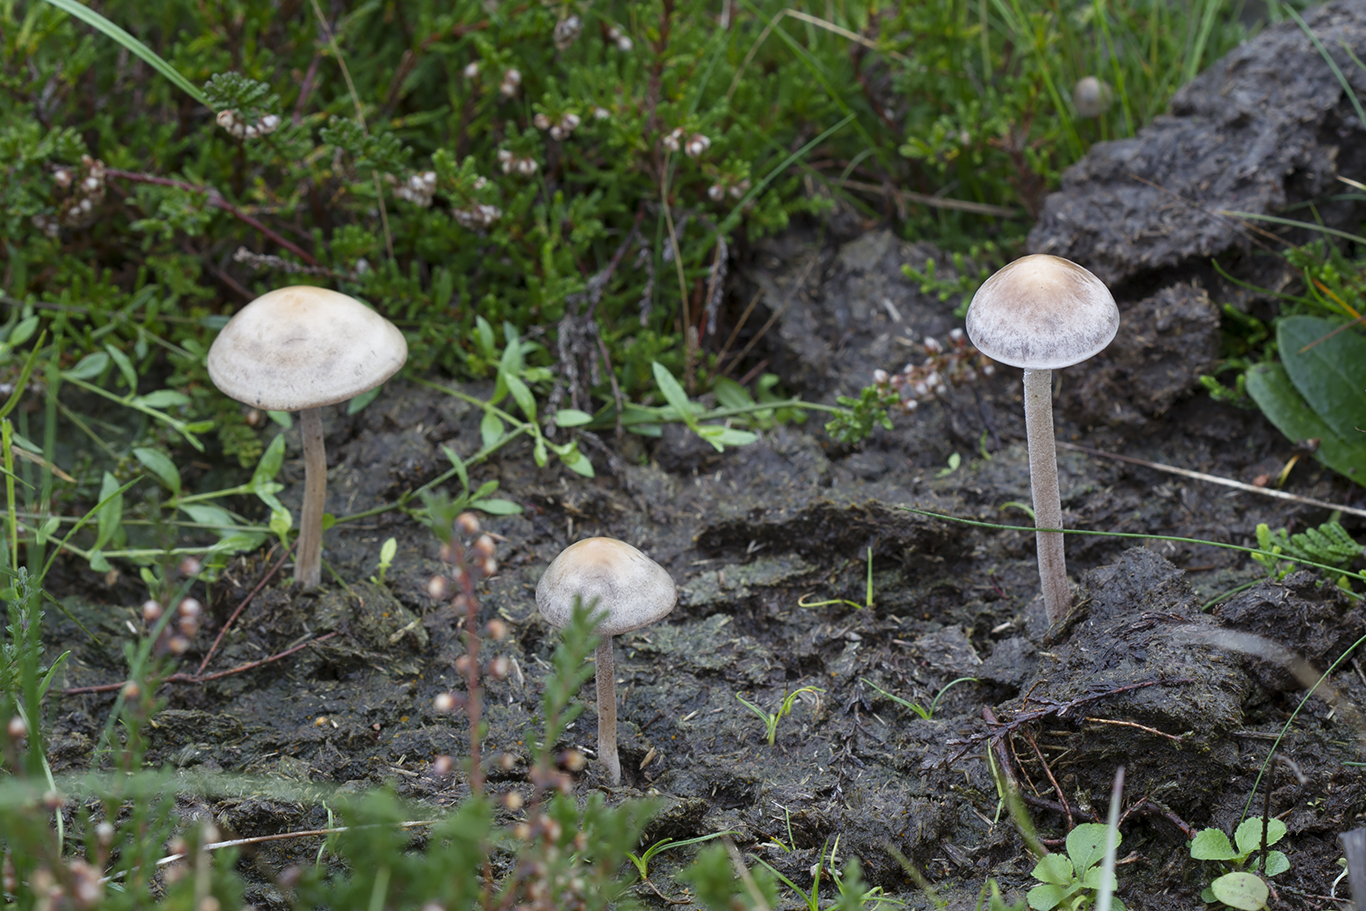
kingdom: Fungi
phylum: Basidiomycota
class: Agaricomycetes
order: Agaricales
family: Bolbitiaceae
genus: Panaeolus
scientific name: Panaeolus subfirmus
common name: fælled-glanshat
